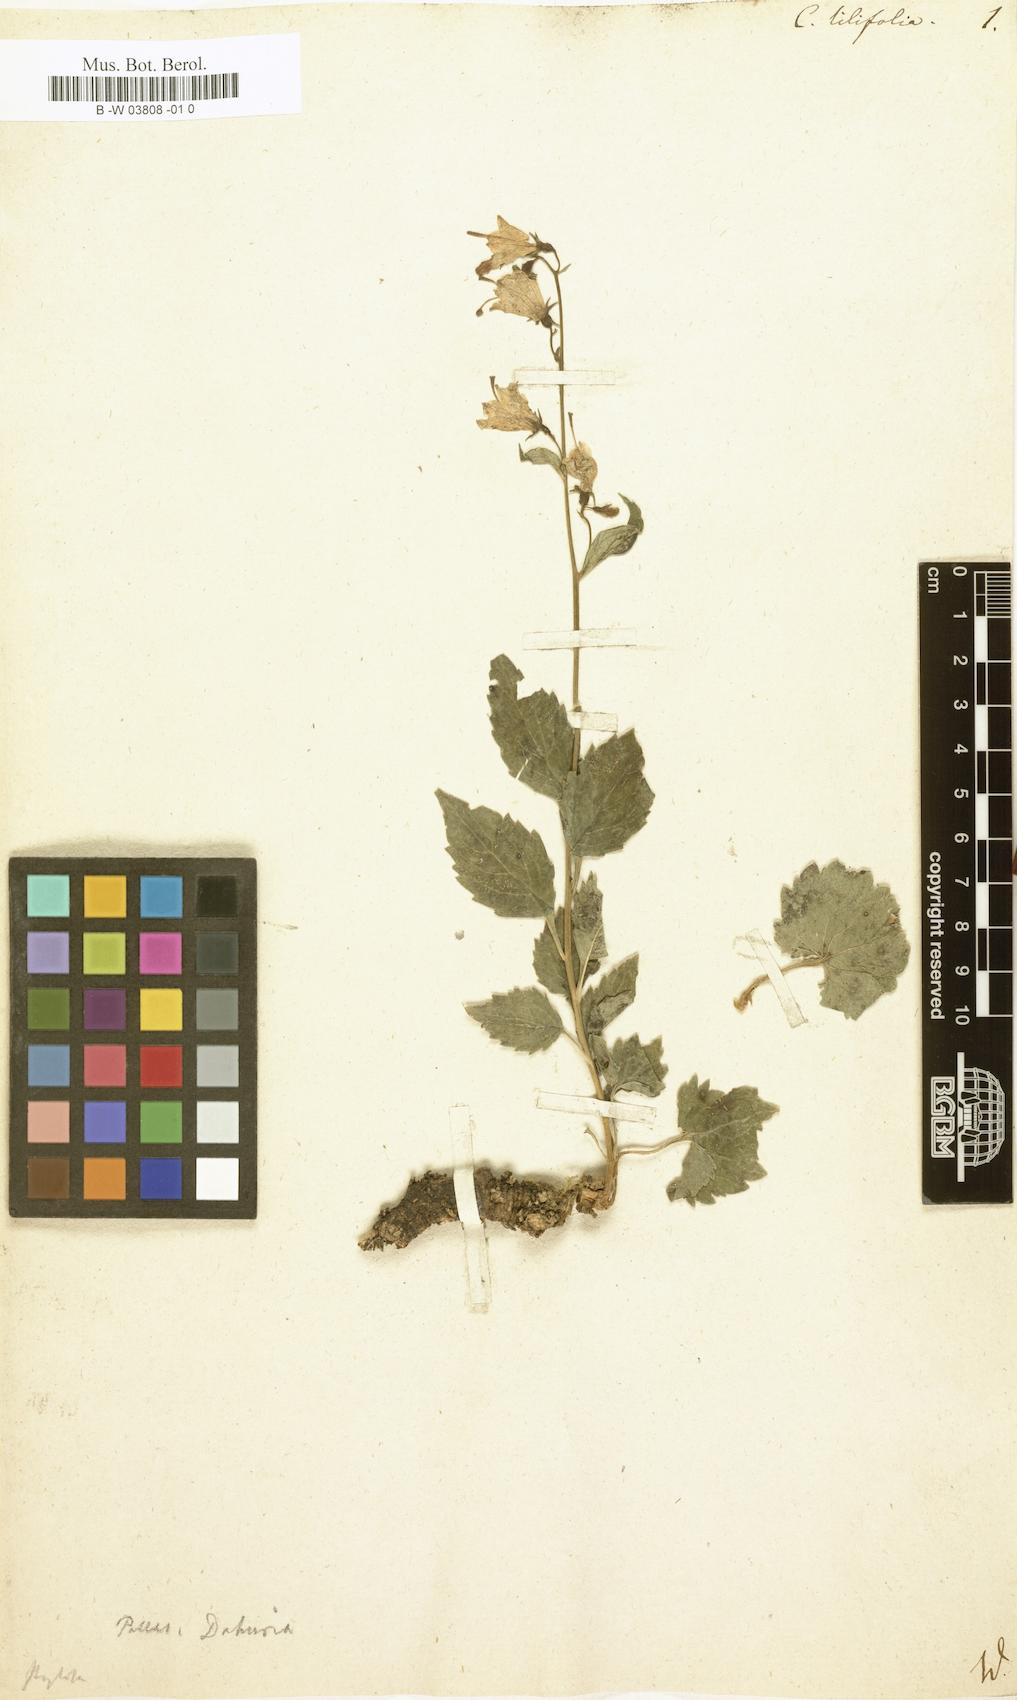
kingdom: Plantae
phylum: Tracheophyta
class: Magnoliopsida
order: Asterales
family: Campanulaceae
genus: Campanula
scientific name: Campanula lilifolia
